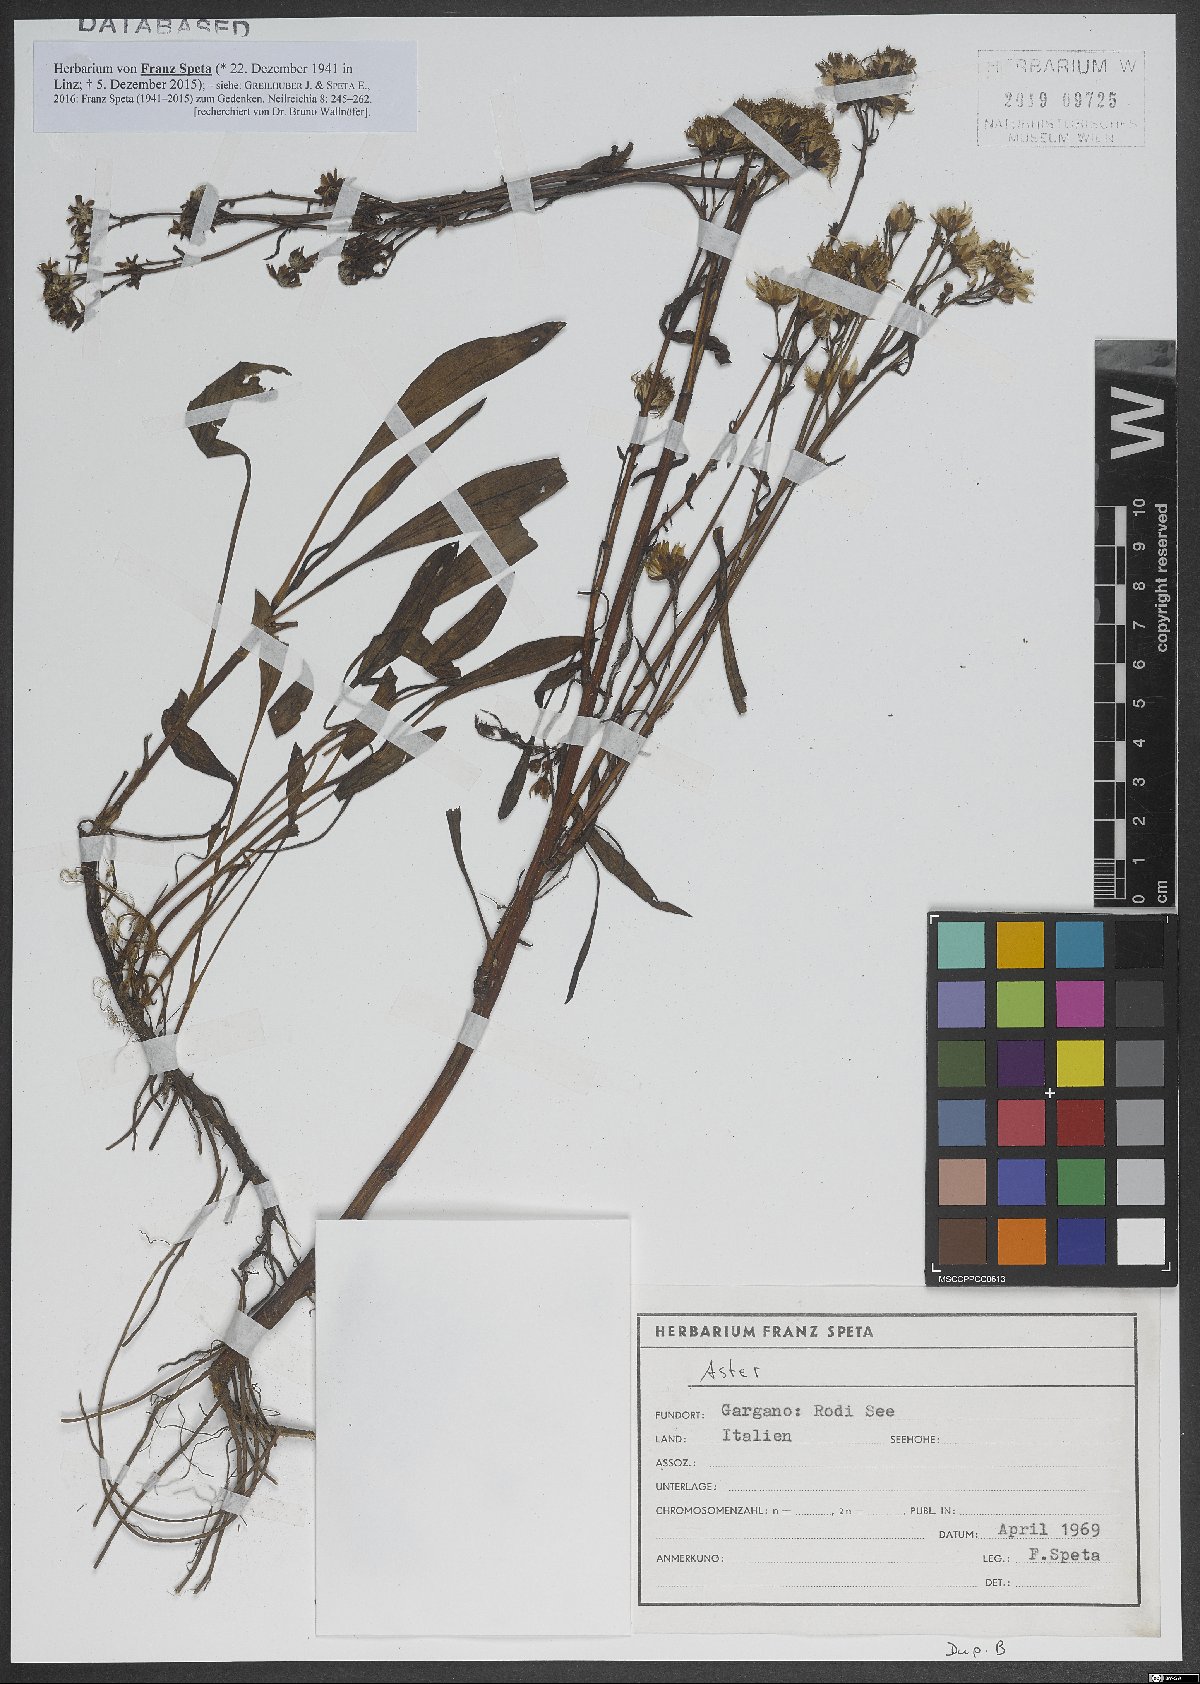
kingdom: Plantae
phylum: Tracheophyta
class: Magnoliopsida
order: Asterales
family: Asteraceae
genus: Aster
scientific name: Aster
